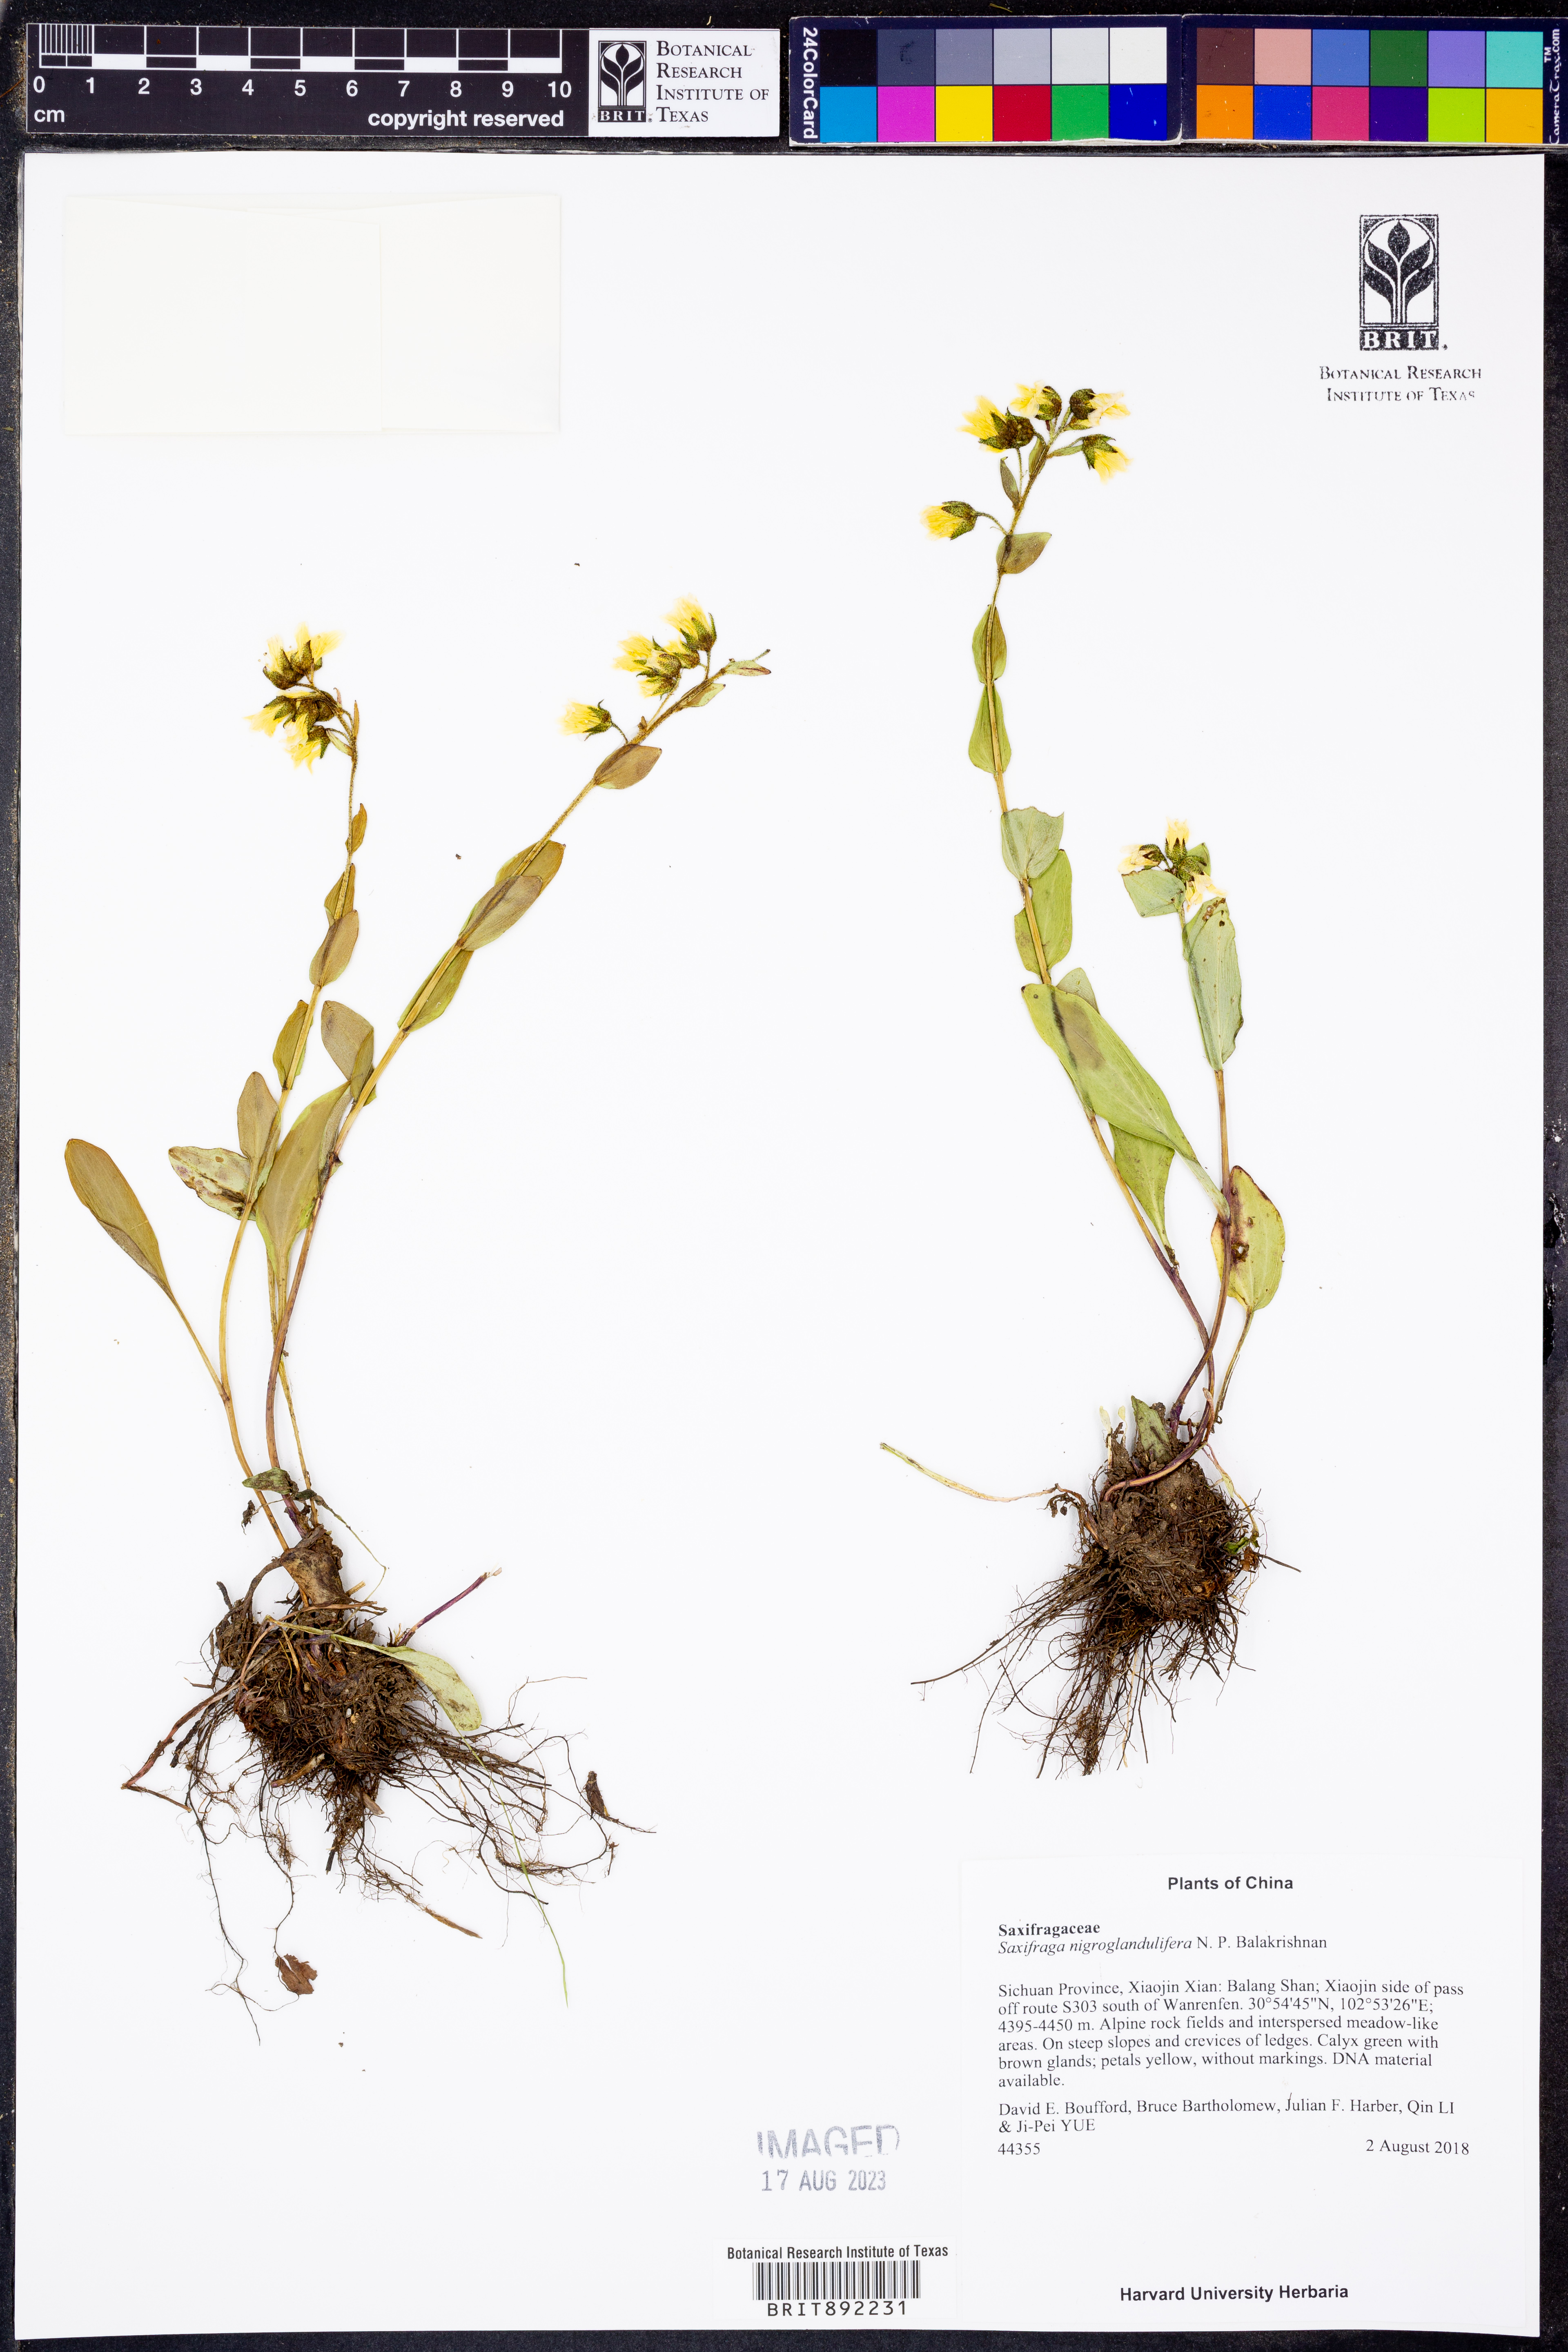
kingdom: Plantae
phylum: Tracheophyta
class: Magnoliopsida
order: Saxifragales
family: Saxifragaceae
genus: Saxifraga
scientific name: Saxifraga nigroglandulifera
